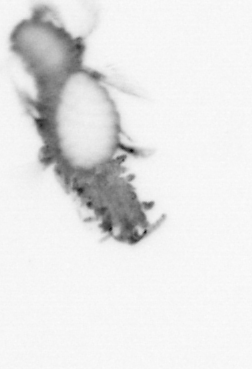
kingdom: Animalia
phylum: Annelida
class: Polychaeta
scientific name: Polychaeta
